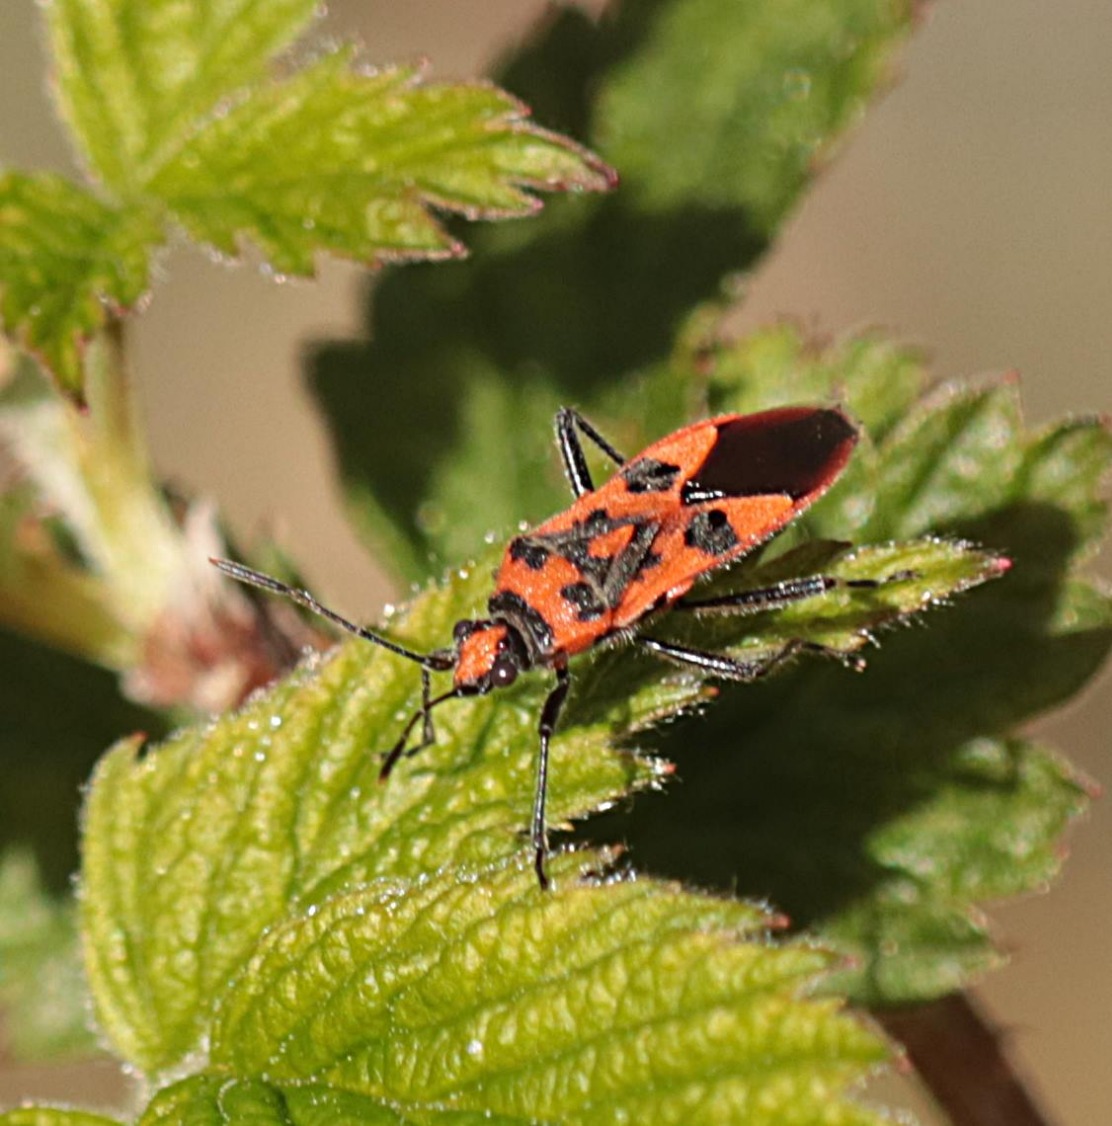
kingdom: Animalia
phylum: Arthropoda
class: Insecta
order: Hemiptera
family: Rhopalidae
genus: Corizus
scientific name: Corizus hyoscyami
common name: Rød kanttæge
